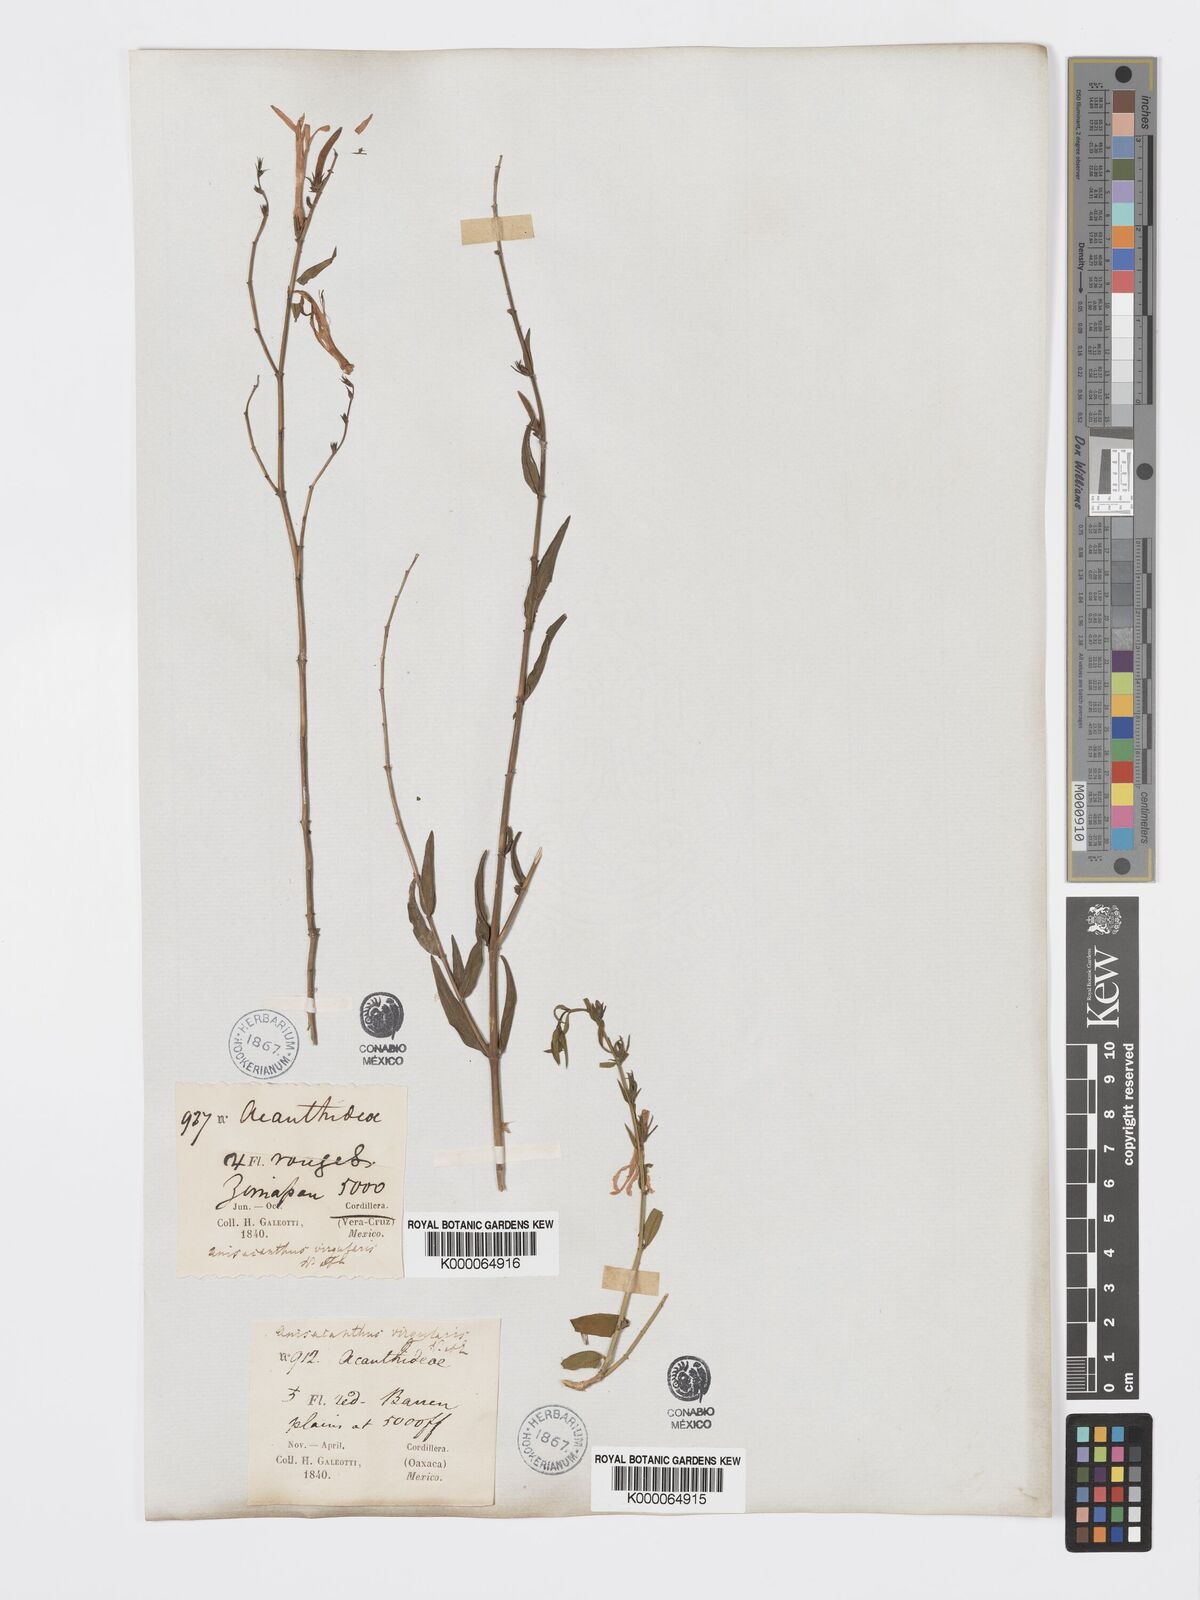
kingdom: Plantae
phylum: Tracheophyta
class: Magnoliopsida
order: Lamiales
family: Acanthaceae
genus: Anisacanthus
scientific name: Anisacanthus quadrifidus
